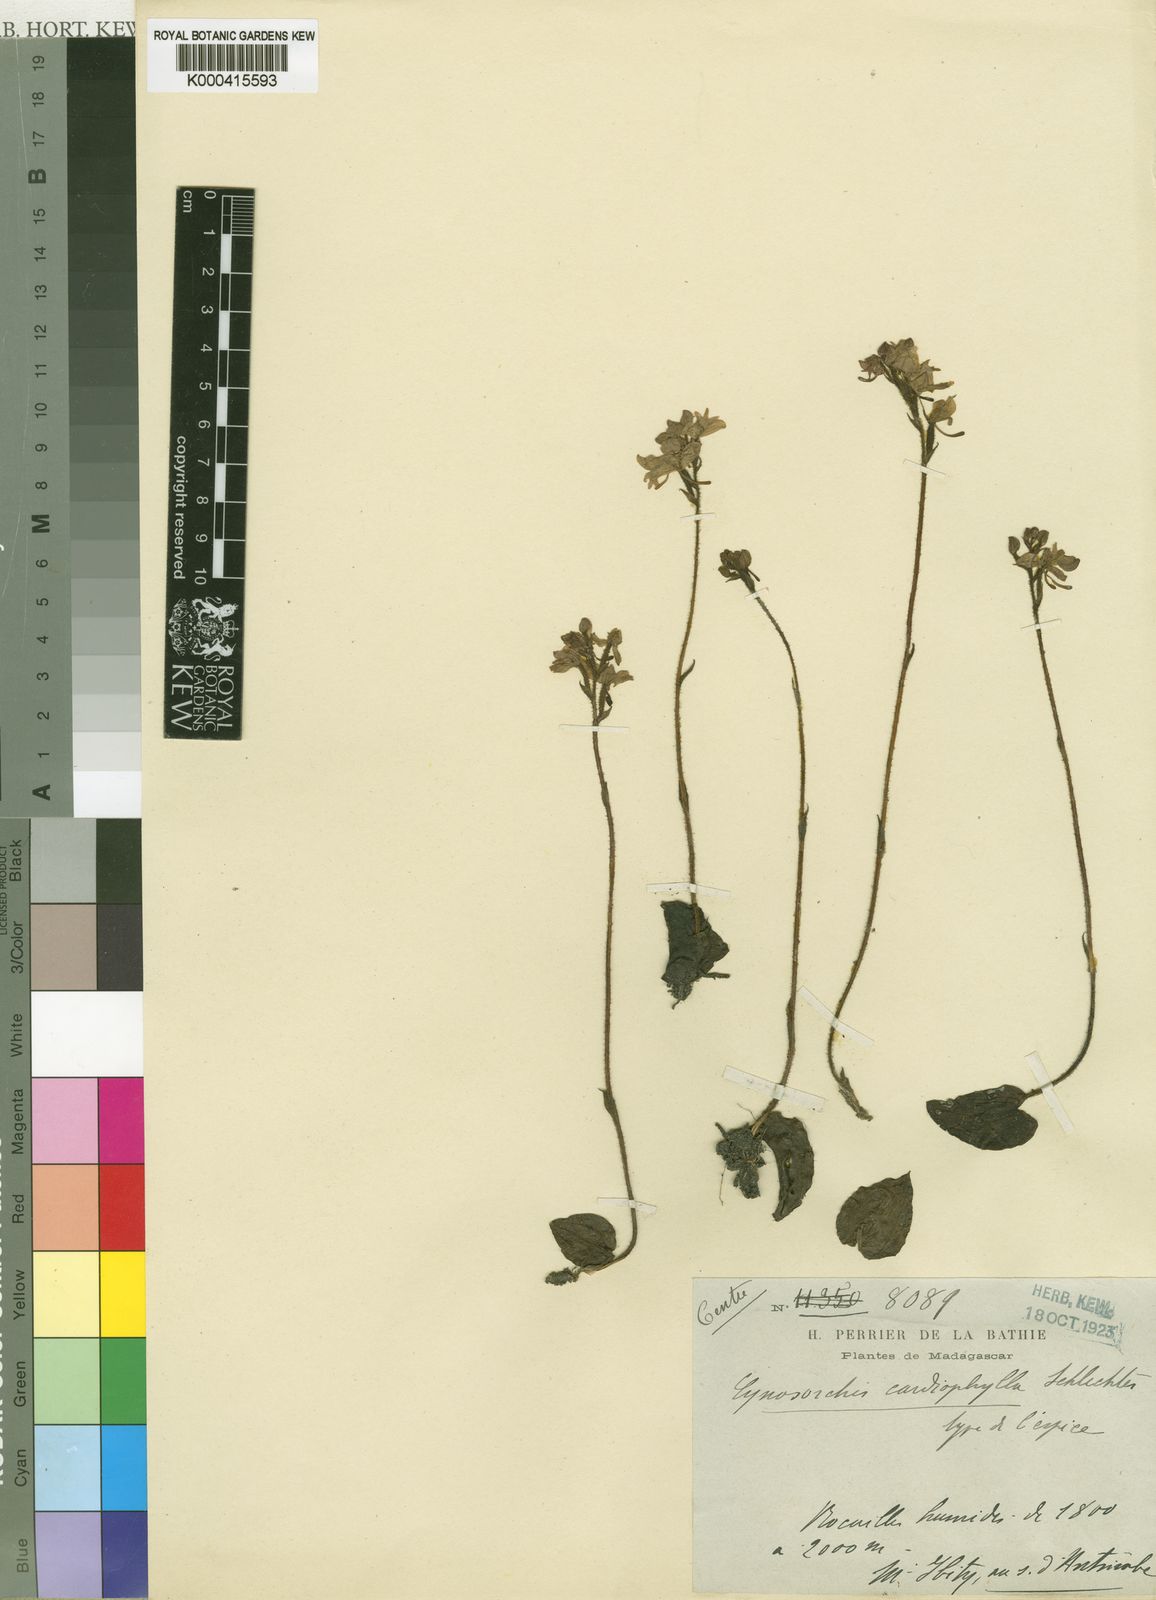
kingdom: Plantae
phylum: Tracheophyta
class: Liliopsida
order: Asparagales
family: Orchidaceae
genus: Cynorkis
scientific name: Cynorkis cardiophylla
